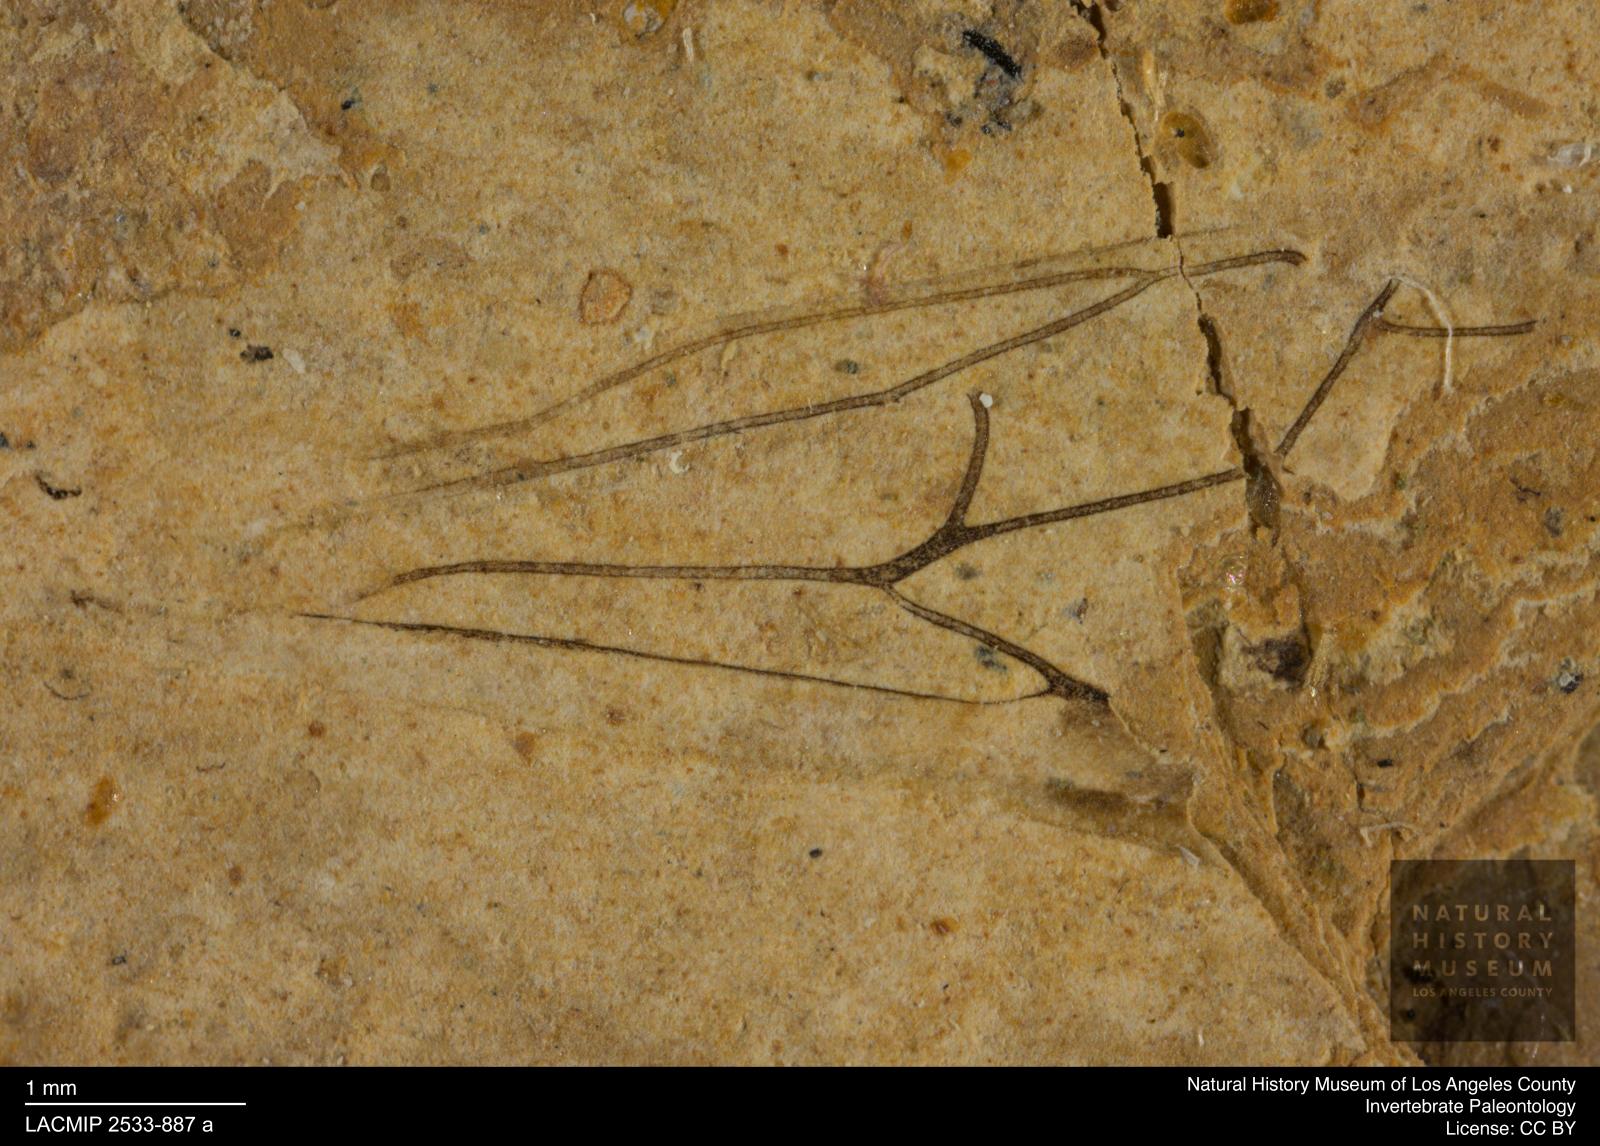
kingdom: Animalia
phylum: Arthropoda
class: Insecta
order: Hymenoptera
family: Tenthredinidae
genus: Tenthredo
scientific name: Tenthredo meunieri
